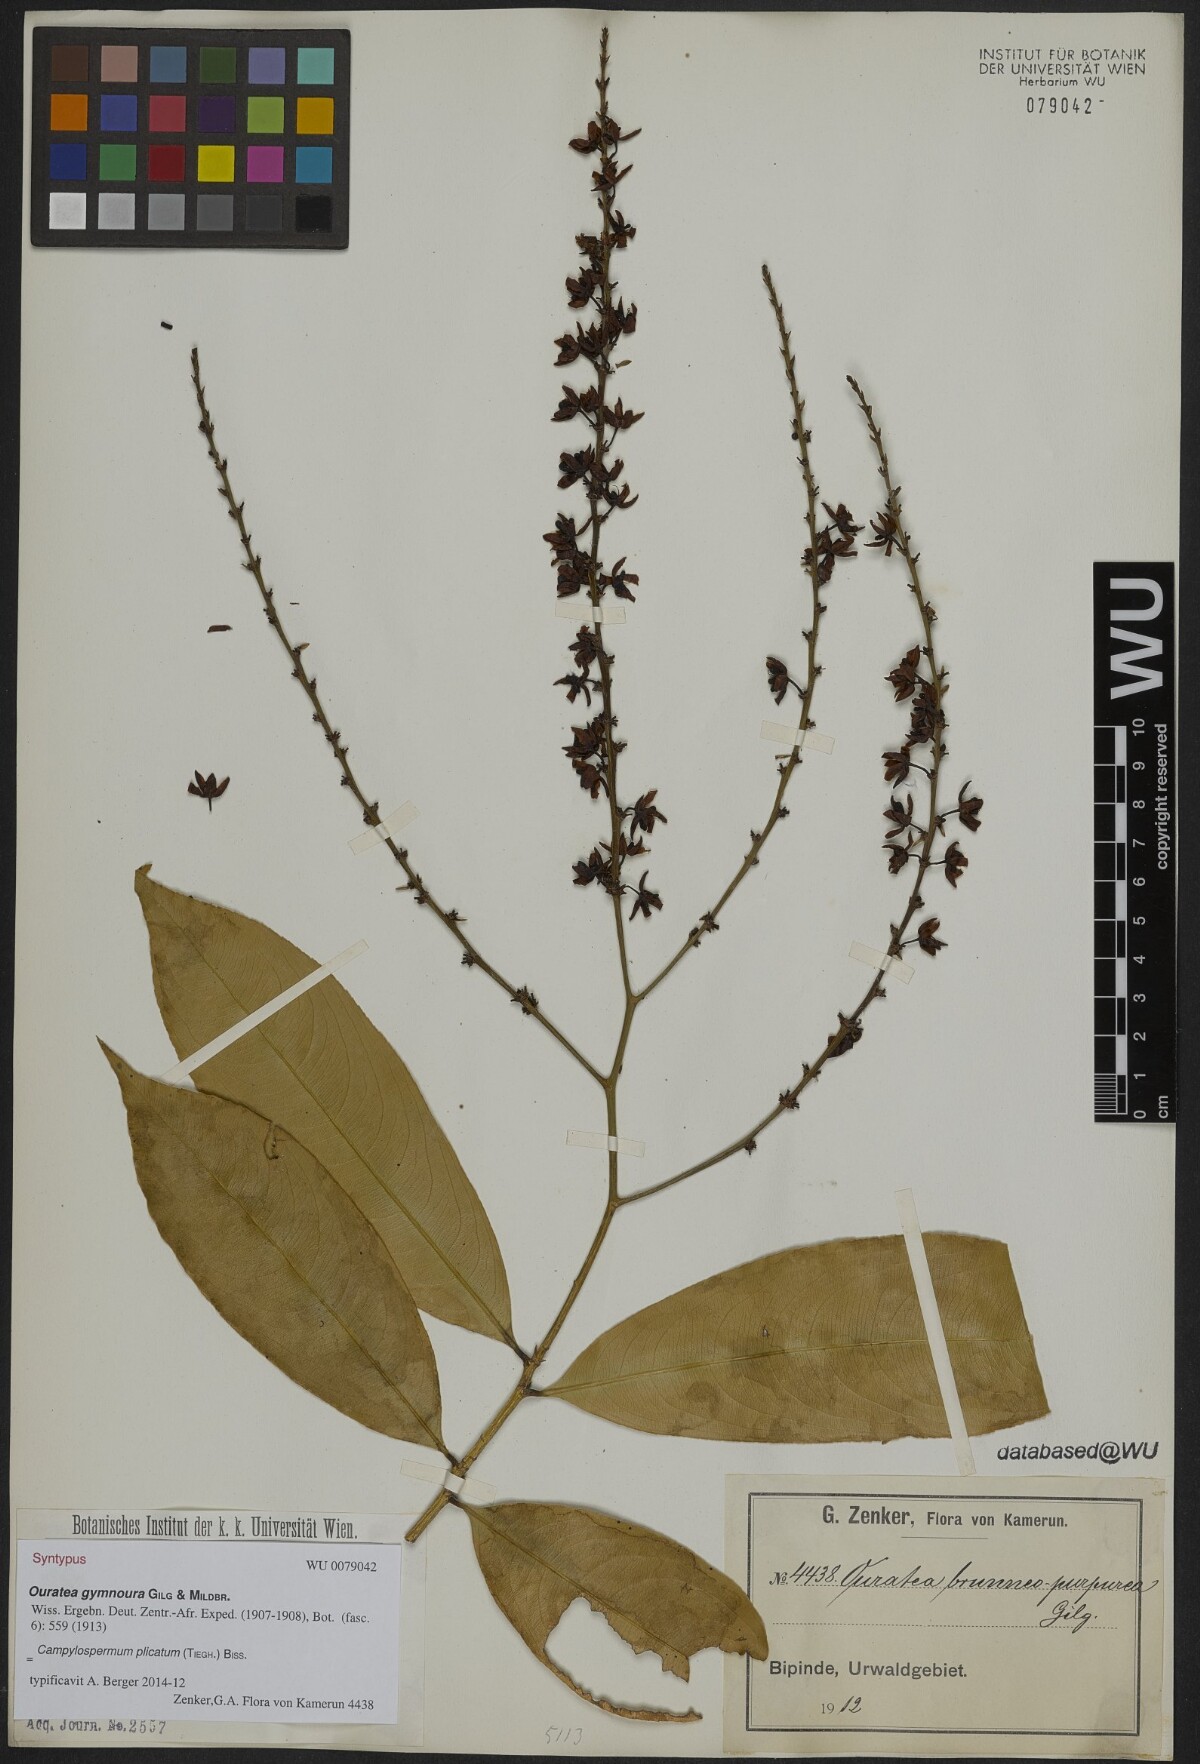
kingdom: Plantae
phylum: Tracheophyta
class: Magnoliopsida
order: Malpighiales
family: Ochnaceae
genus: Campylospermum
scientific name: Campylospermum strictum
